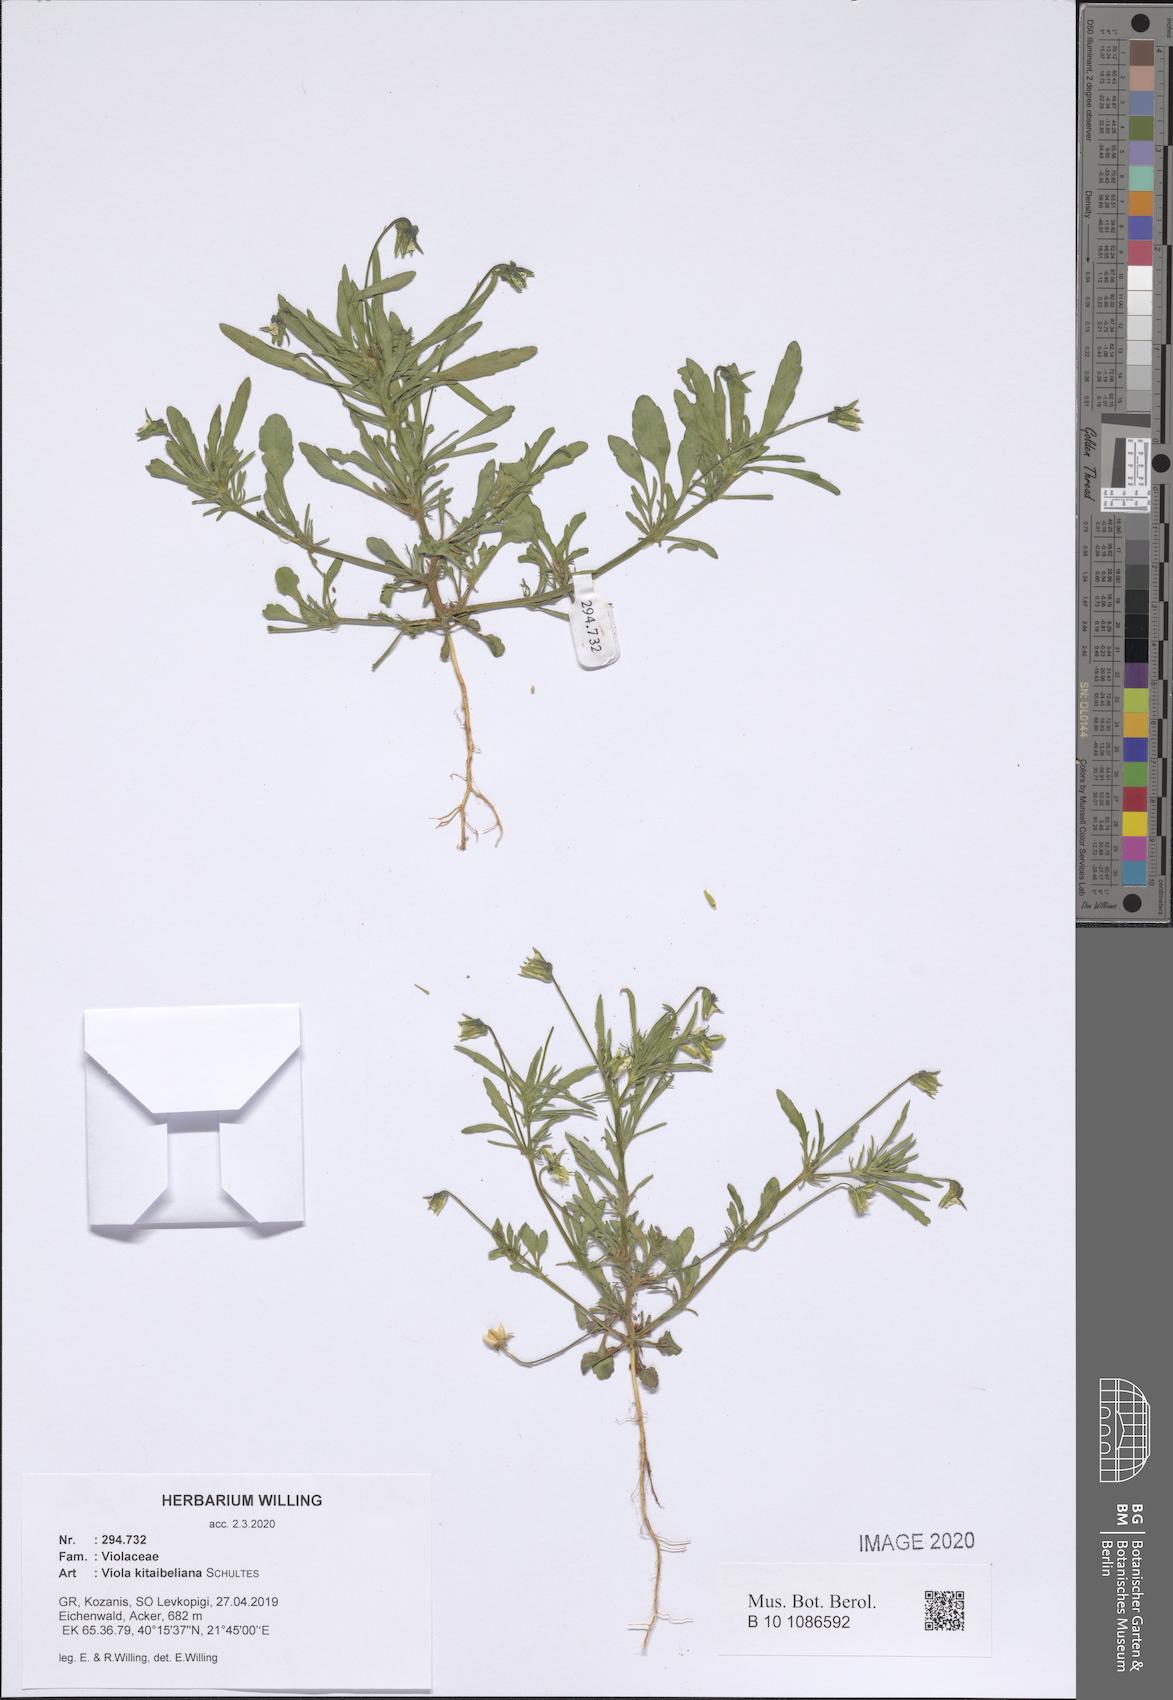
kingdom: Plantae
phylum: Tracheophyta
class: Magnoliopsida
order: Malpighiales
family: Violaceae
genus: Viola
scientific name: Viola kitaibeliana
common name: Dwarf pansy
